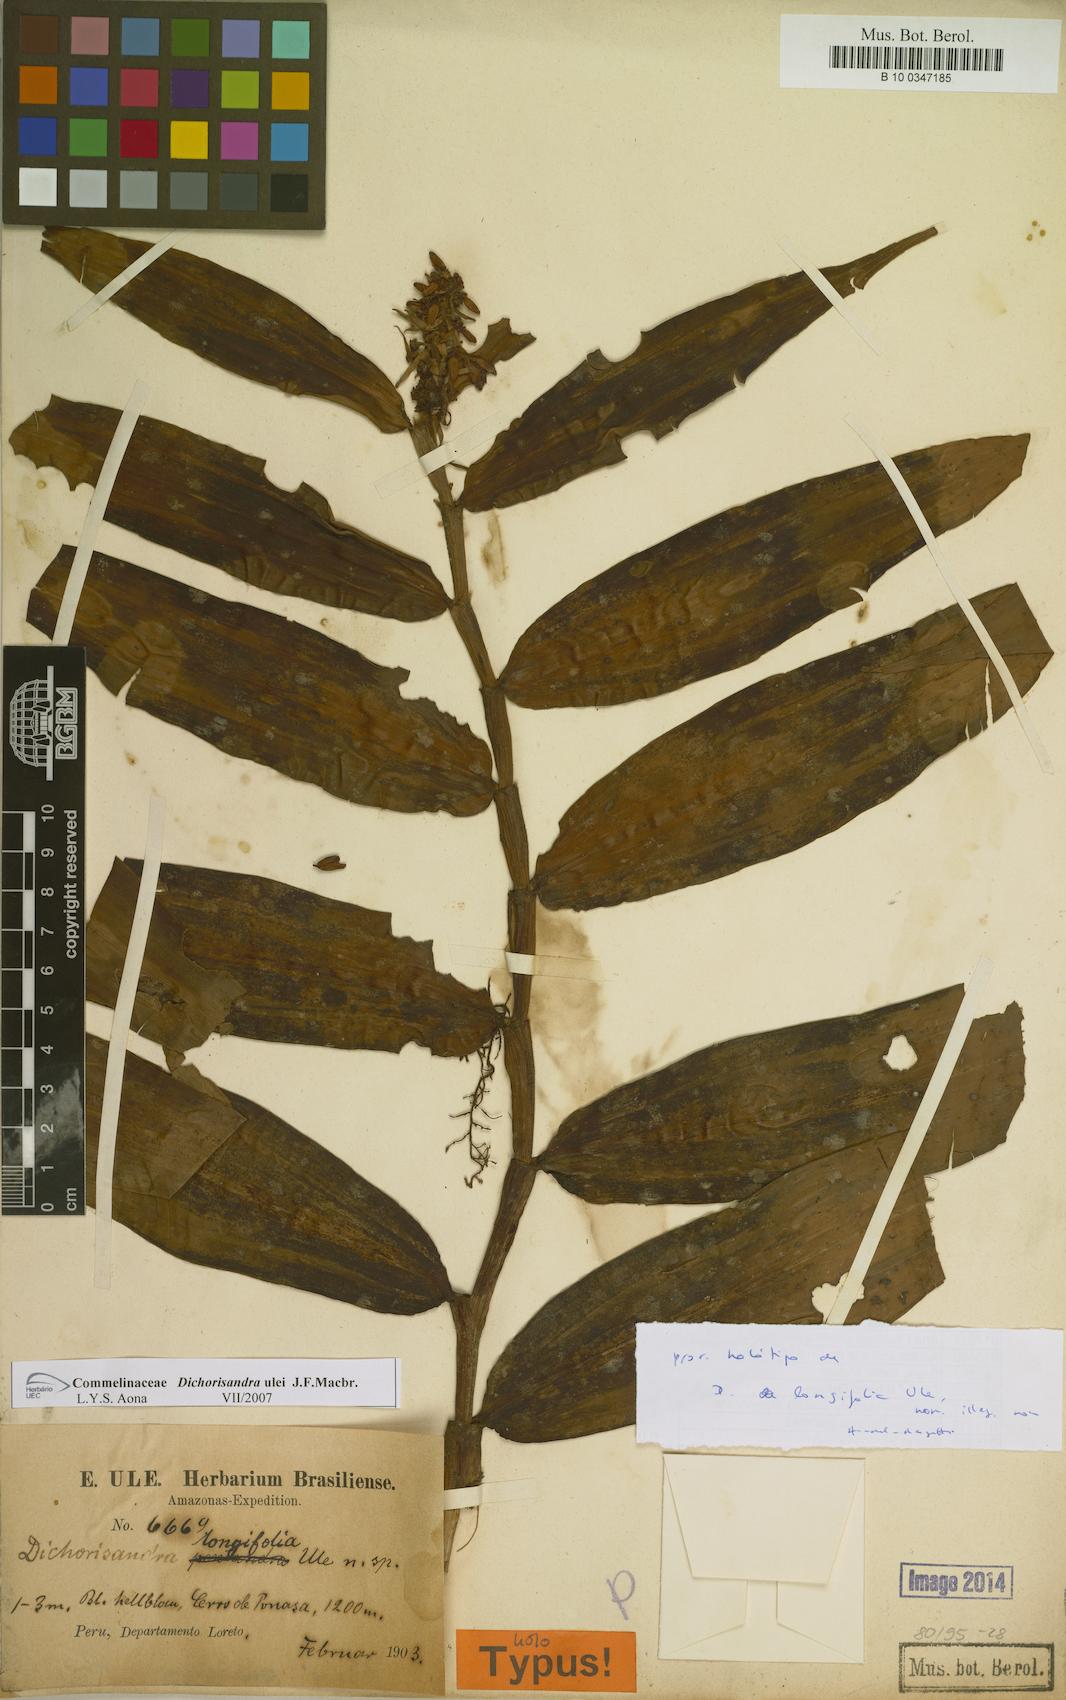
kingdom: Plantae
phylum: Tracheophyta
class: Liliopsida
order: Commelinales
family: Commelinaceae
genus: Dichorisandra
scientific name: Dichorisandra ulei
